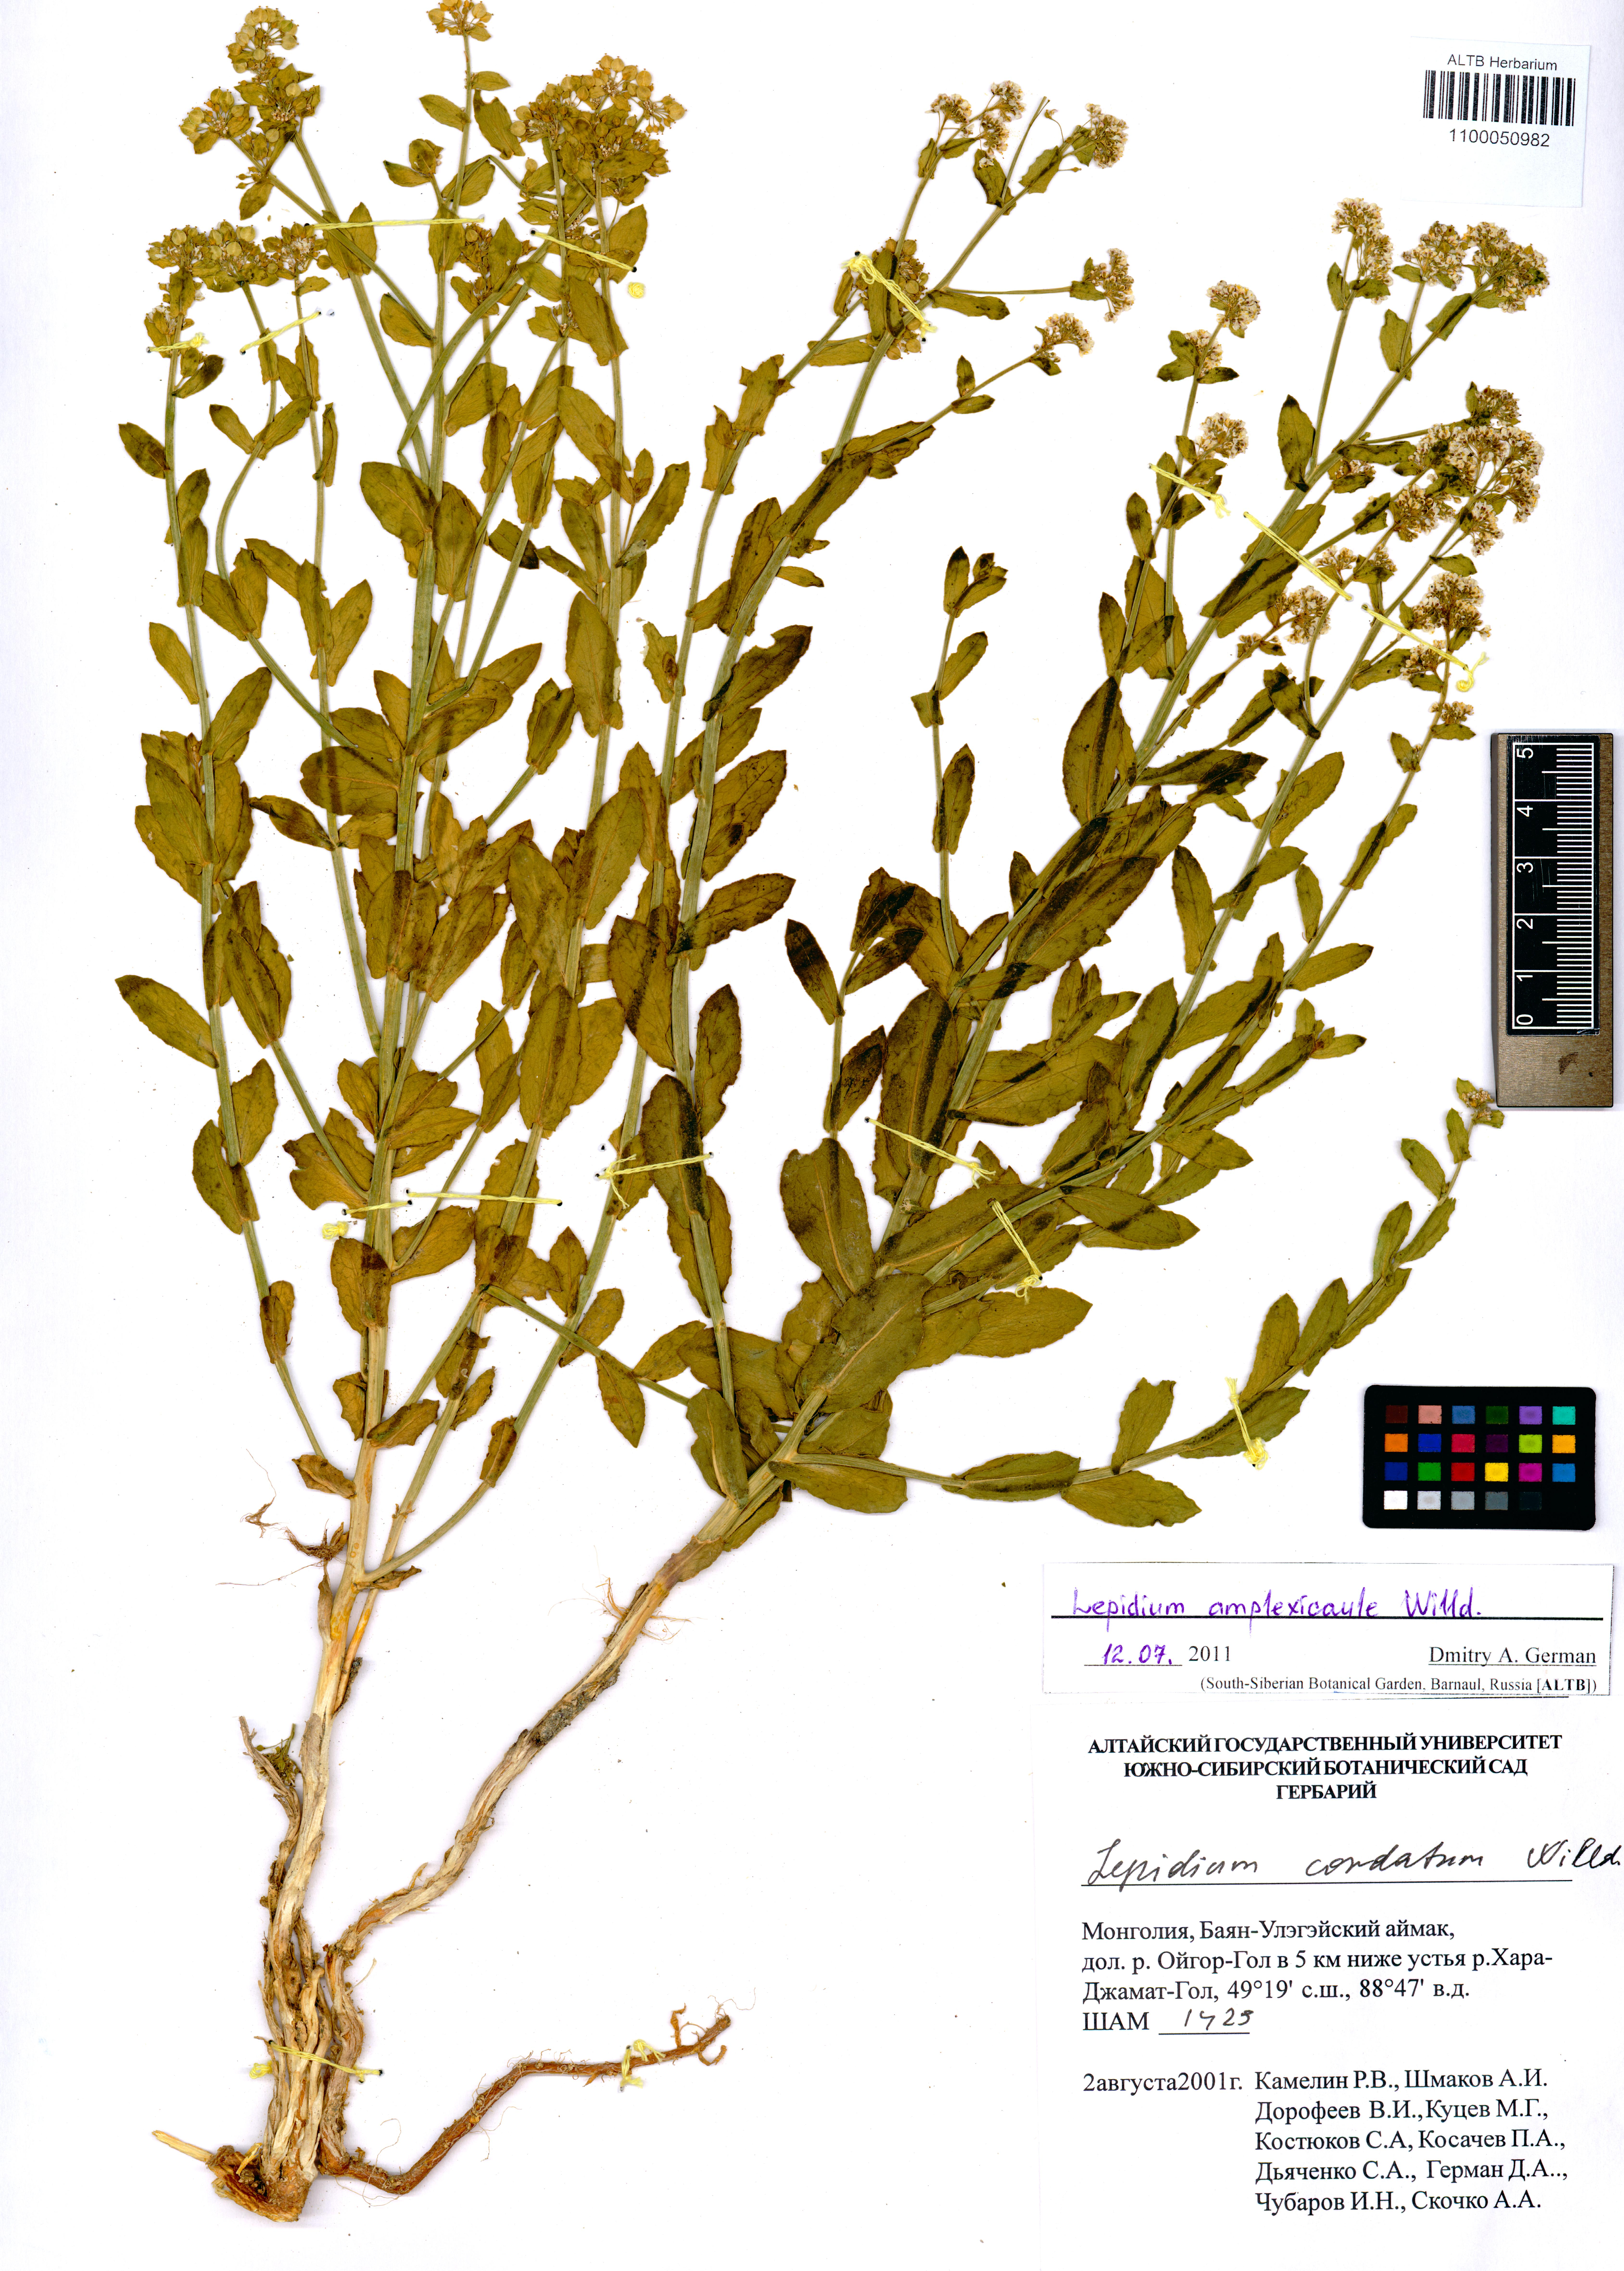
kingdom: Plantae
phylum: Tracheophyta
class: Magnoliopsida
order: Brassicales
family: Brassicaceae
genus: Lepidium
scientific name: Lepidium amplexicaule
